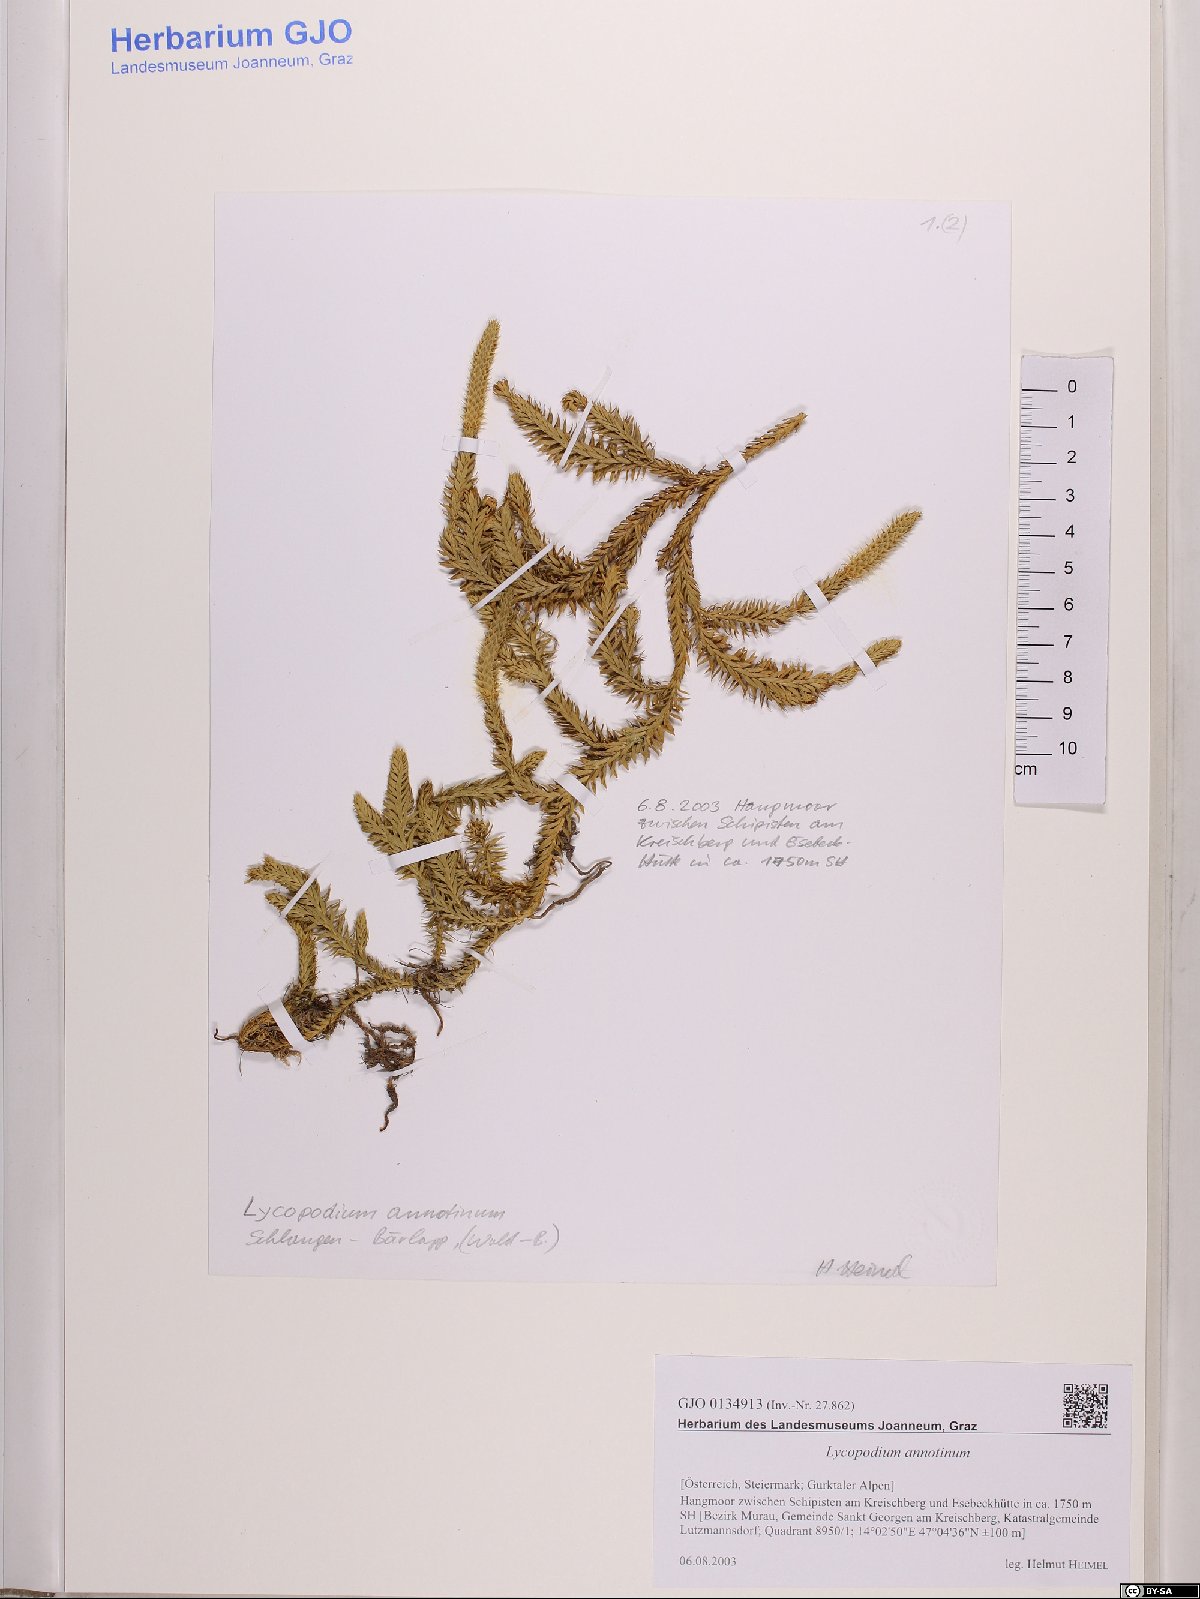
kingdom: Plantae
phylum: Tracheophyta
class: Lycopodiopsida
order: Lycopodiales
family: Lycopodiaceae
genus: Spinulum
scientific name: Spinulum annotinum
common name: Interrupted club-moss
